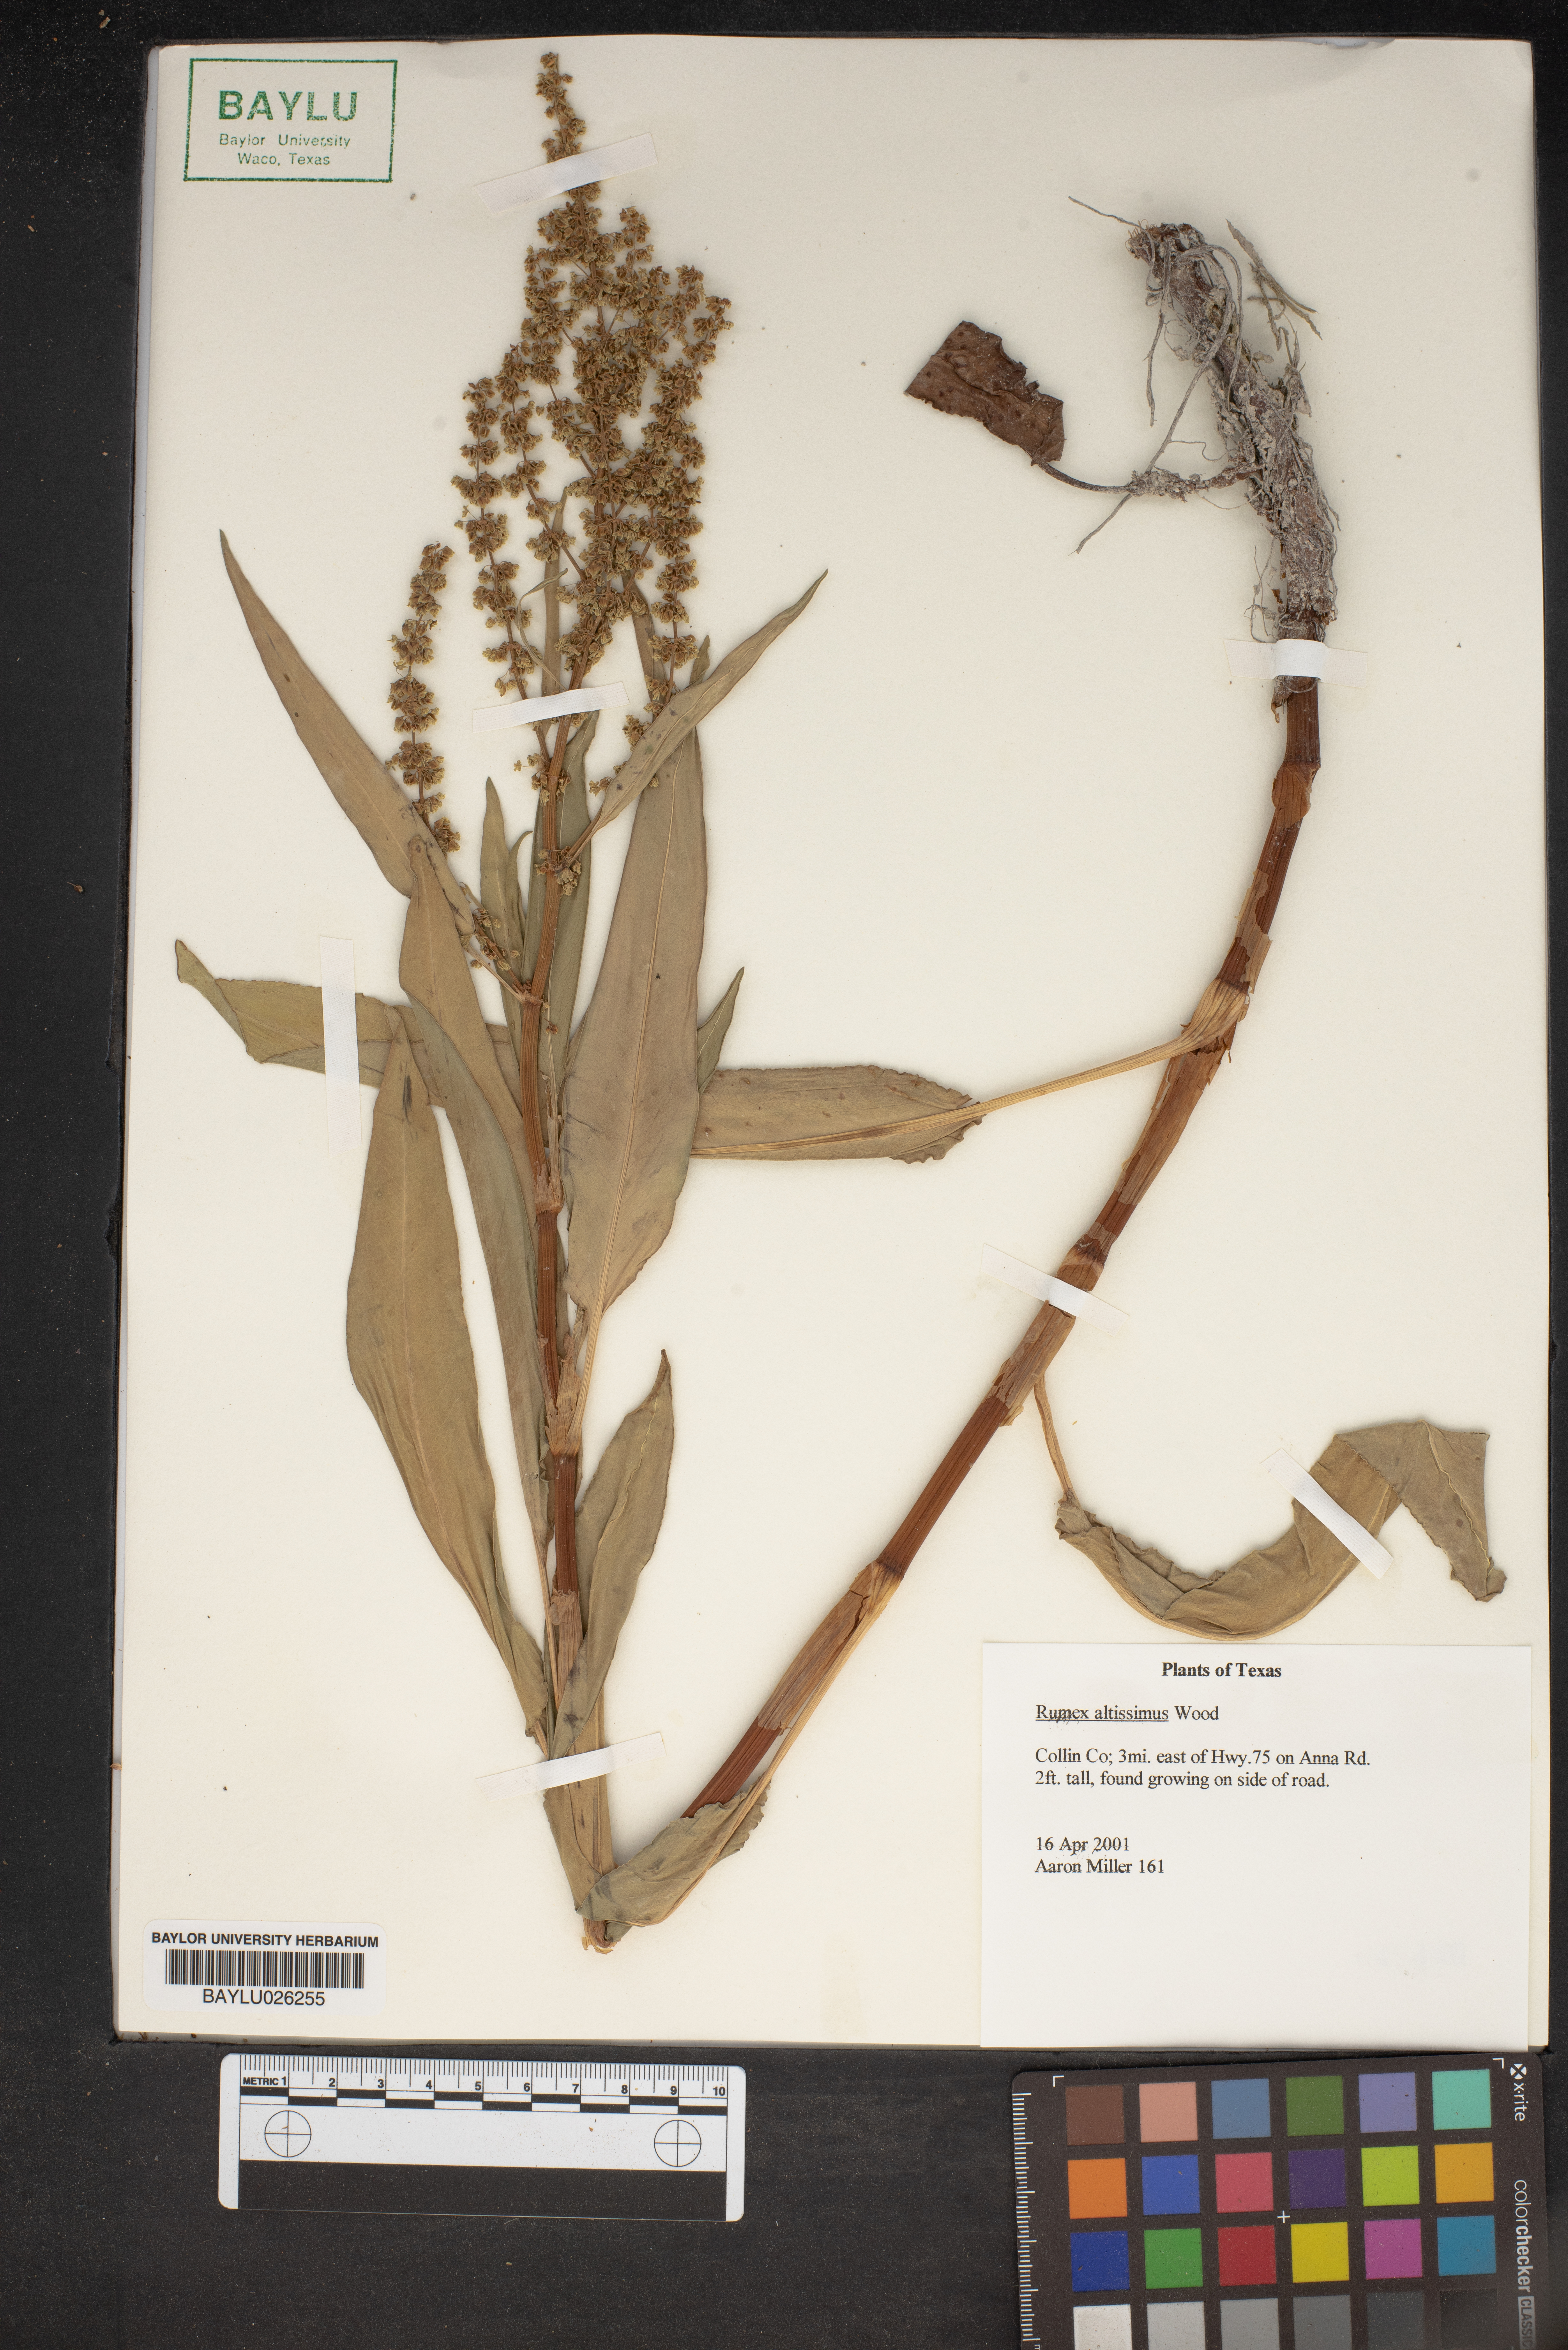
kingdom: Plantae
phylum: Tracheophyta
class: Magnoliopsida
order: Caryophyllales
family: Polygonaceae
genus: Rumex
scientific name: Rumex altissimus
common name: Smooth dock
